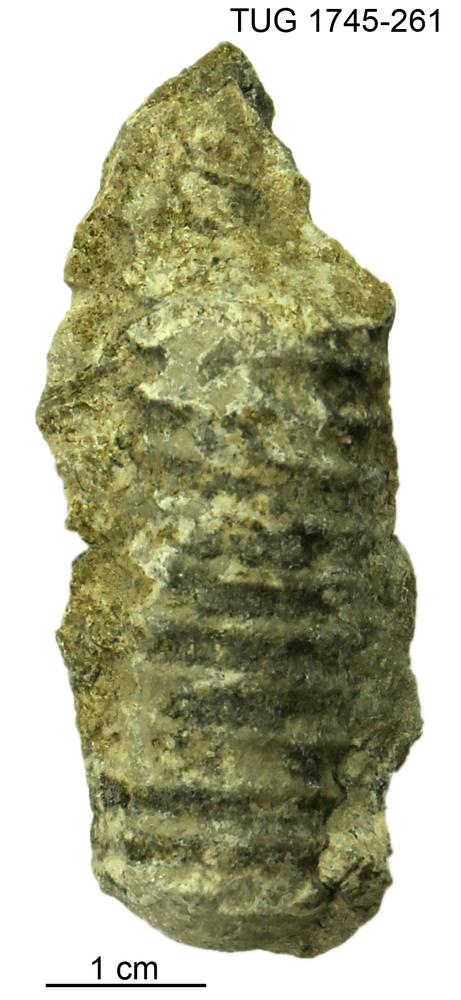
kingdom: Animalia
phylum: Mollusca
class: Cephalopoda
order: Orthocerida
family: Dawsonoceratidae
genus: Palaeodawsonocerina
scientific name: Palaeodawsonocerina Spyroceras senckenbergi
